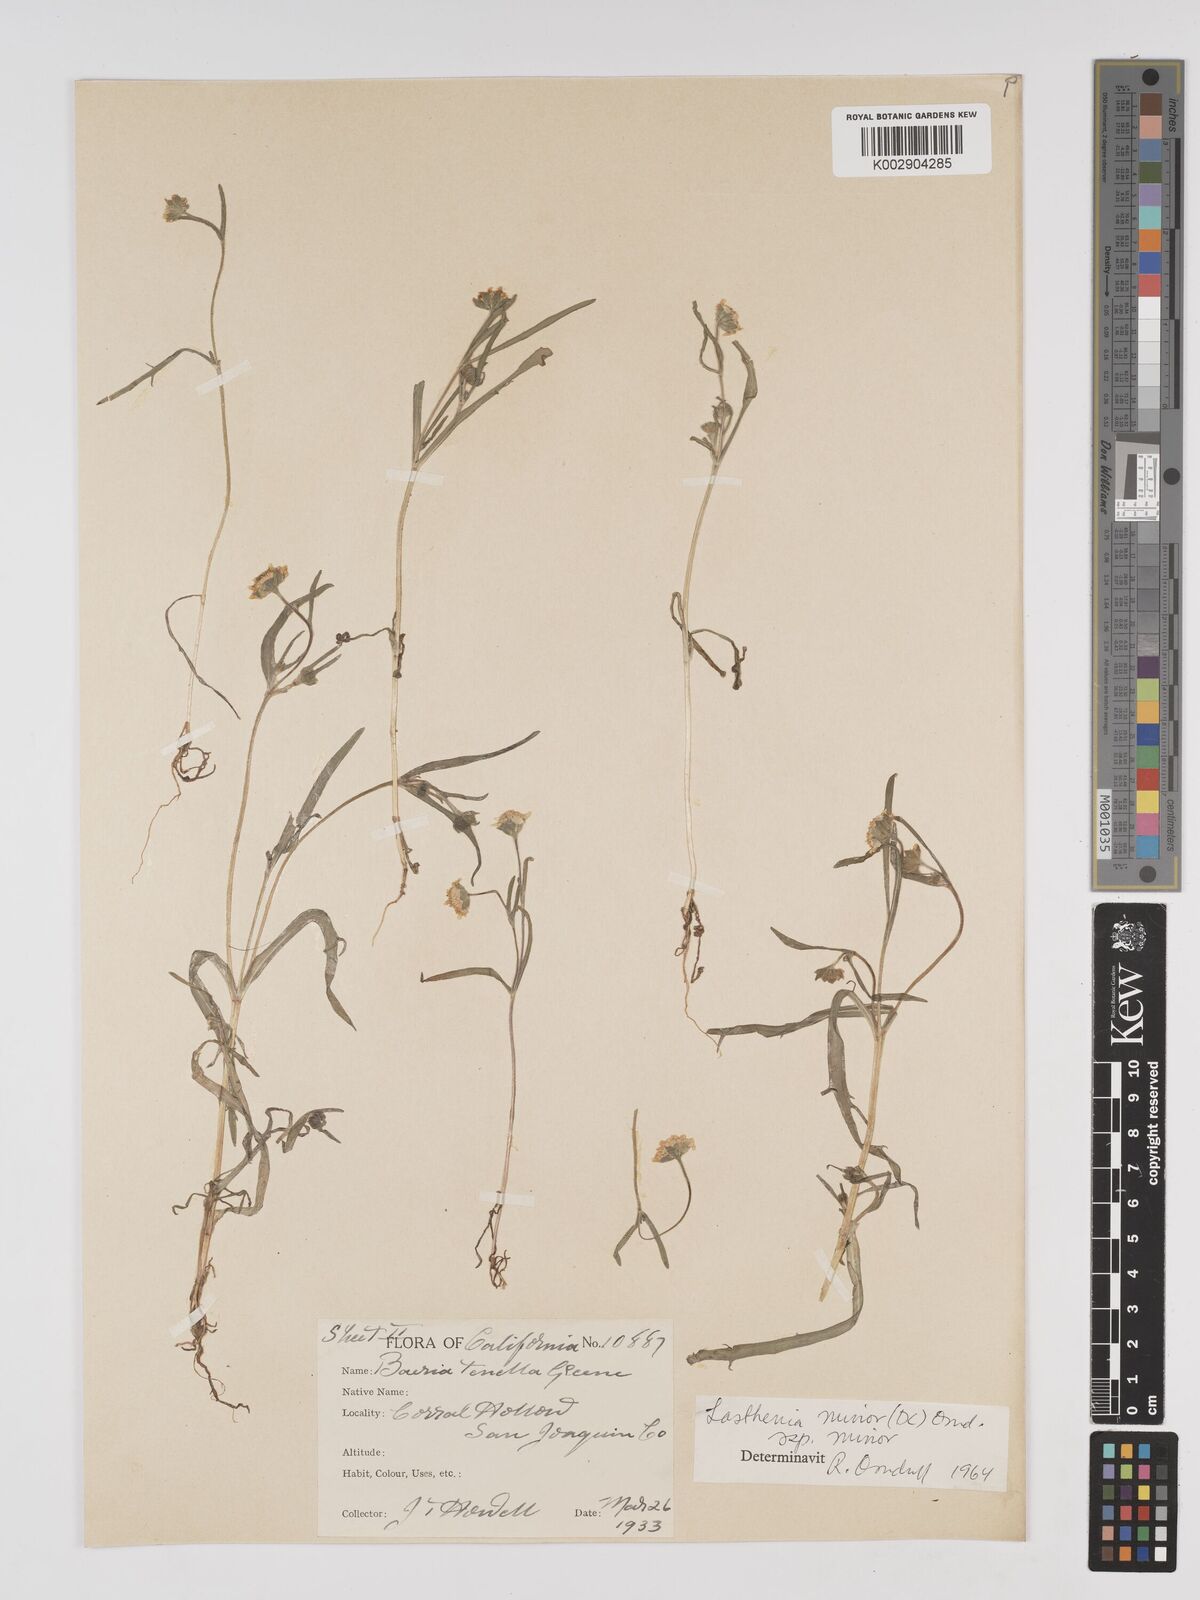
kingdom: Plantae
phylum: Tracheophyta
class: Magnoliopsida
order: Asterales
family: Asteraceae
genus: Lasthenia
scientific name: Lasthenia minor
